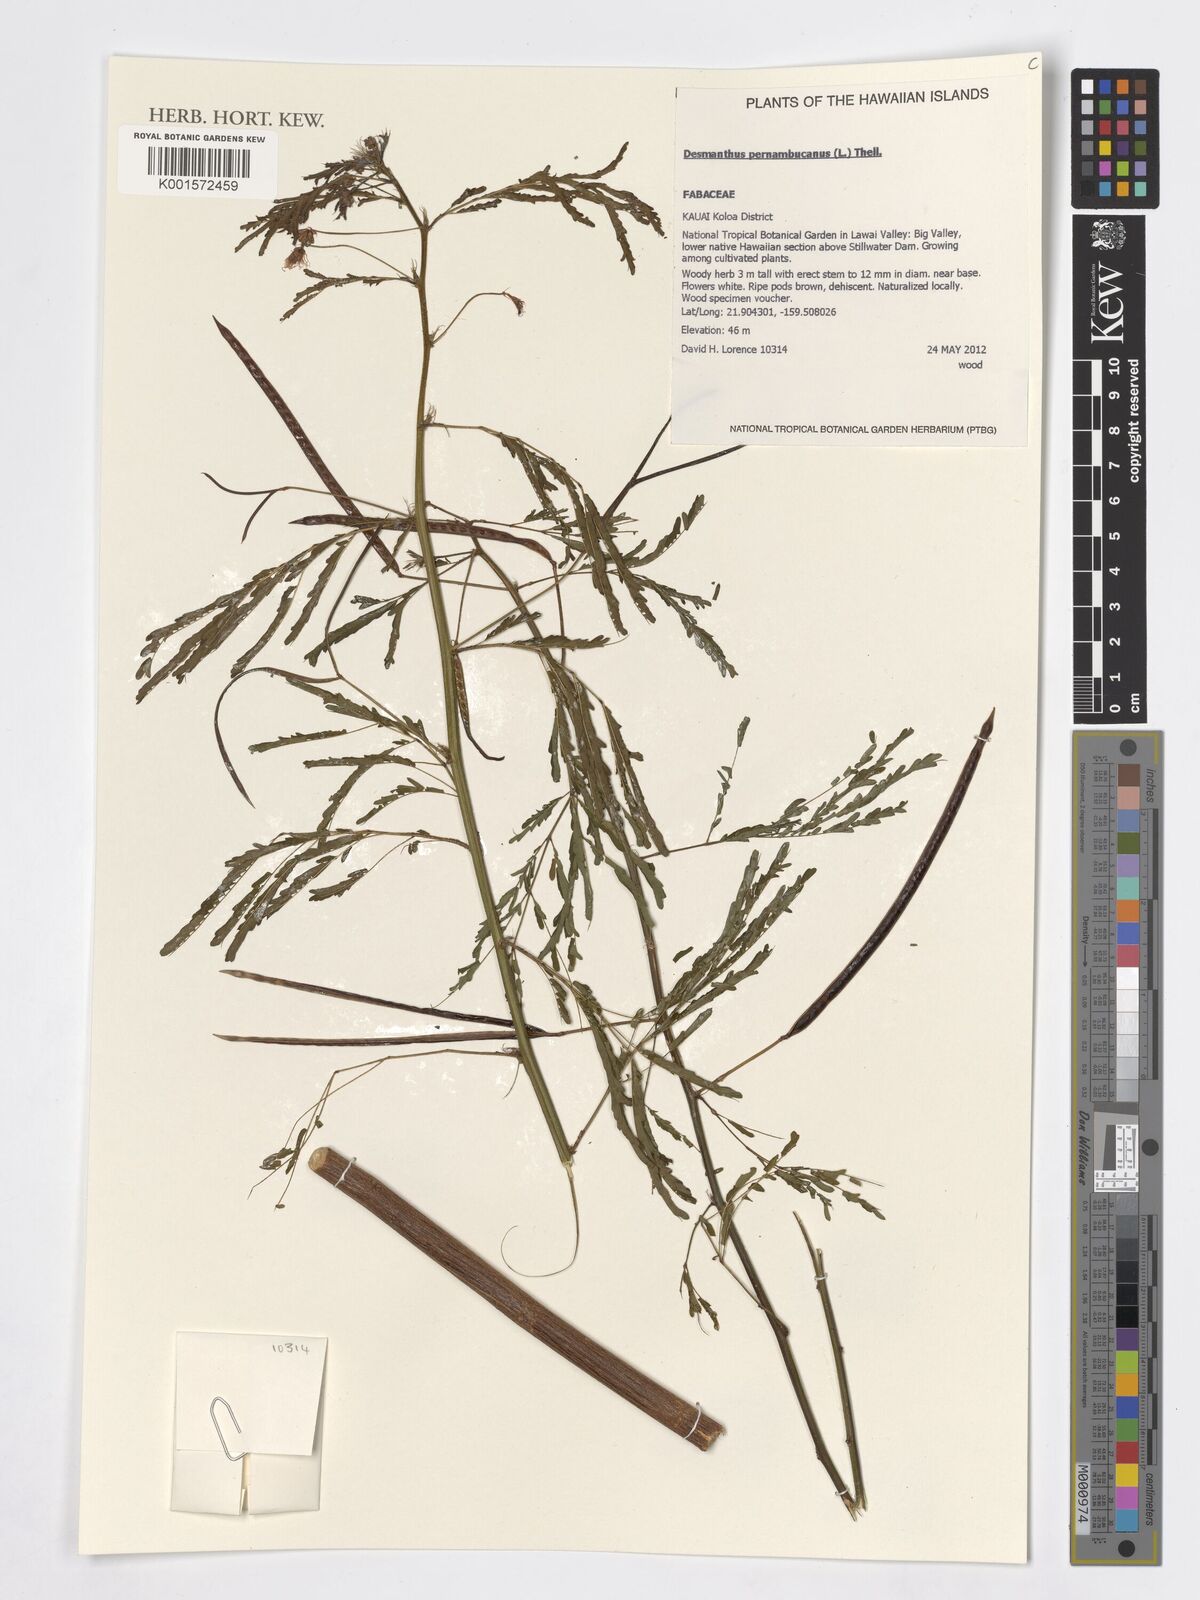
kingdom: Plantae
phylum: Tracheophyta
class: Magnoliopsida
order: Fabales
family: Fabaceae
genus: Desmanthus
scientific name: Desmanthus pernambucanus
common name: Pigeon bundleflower
